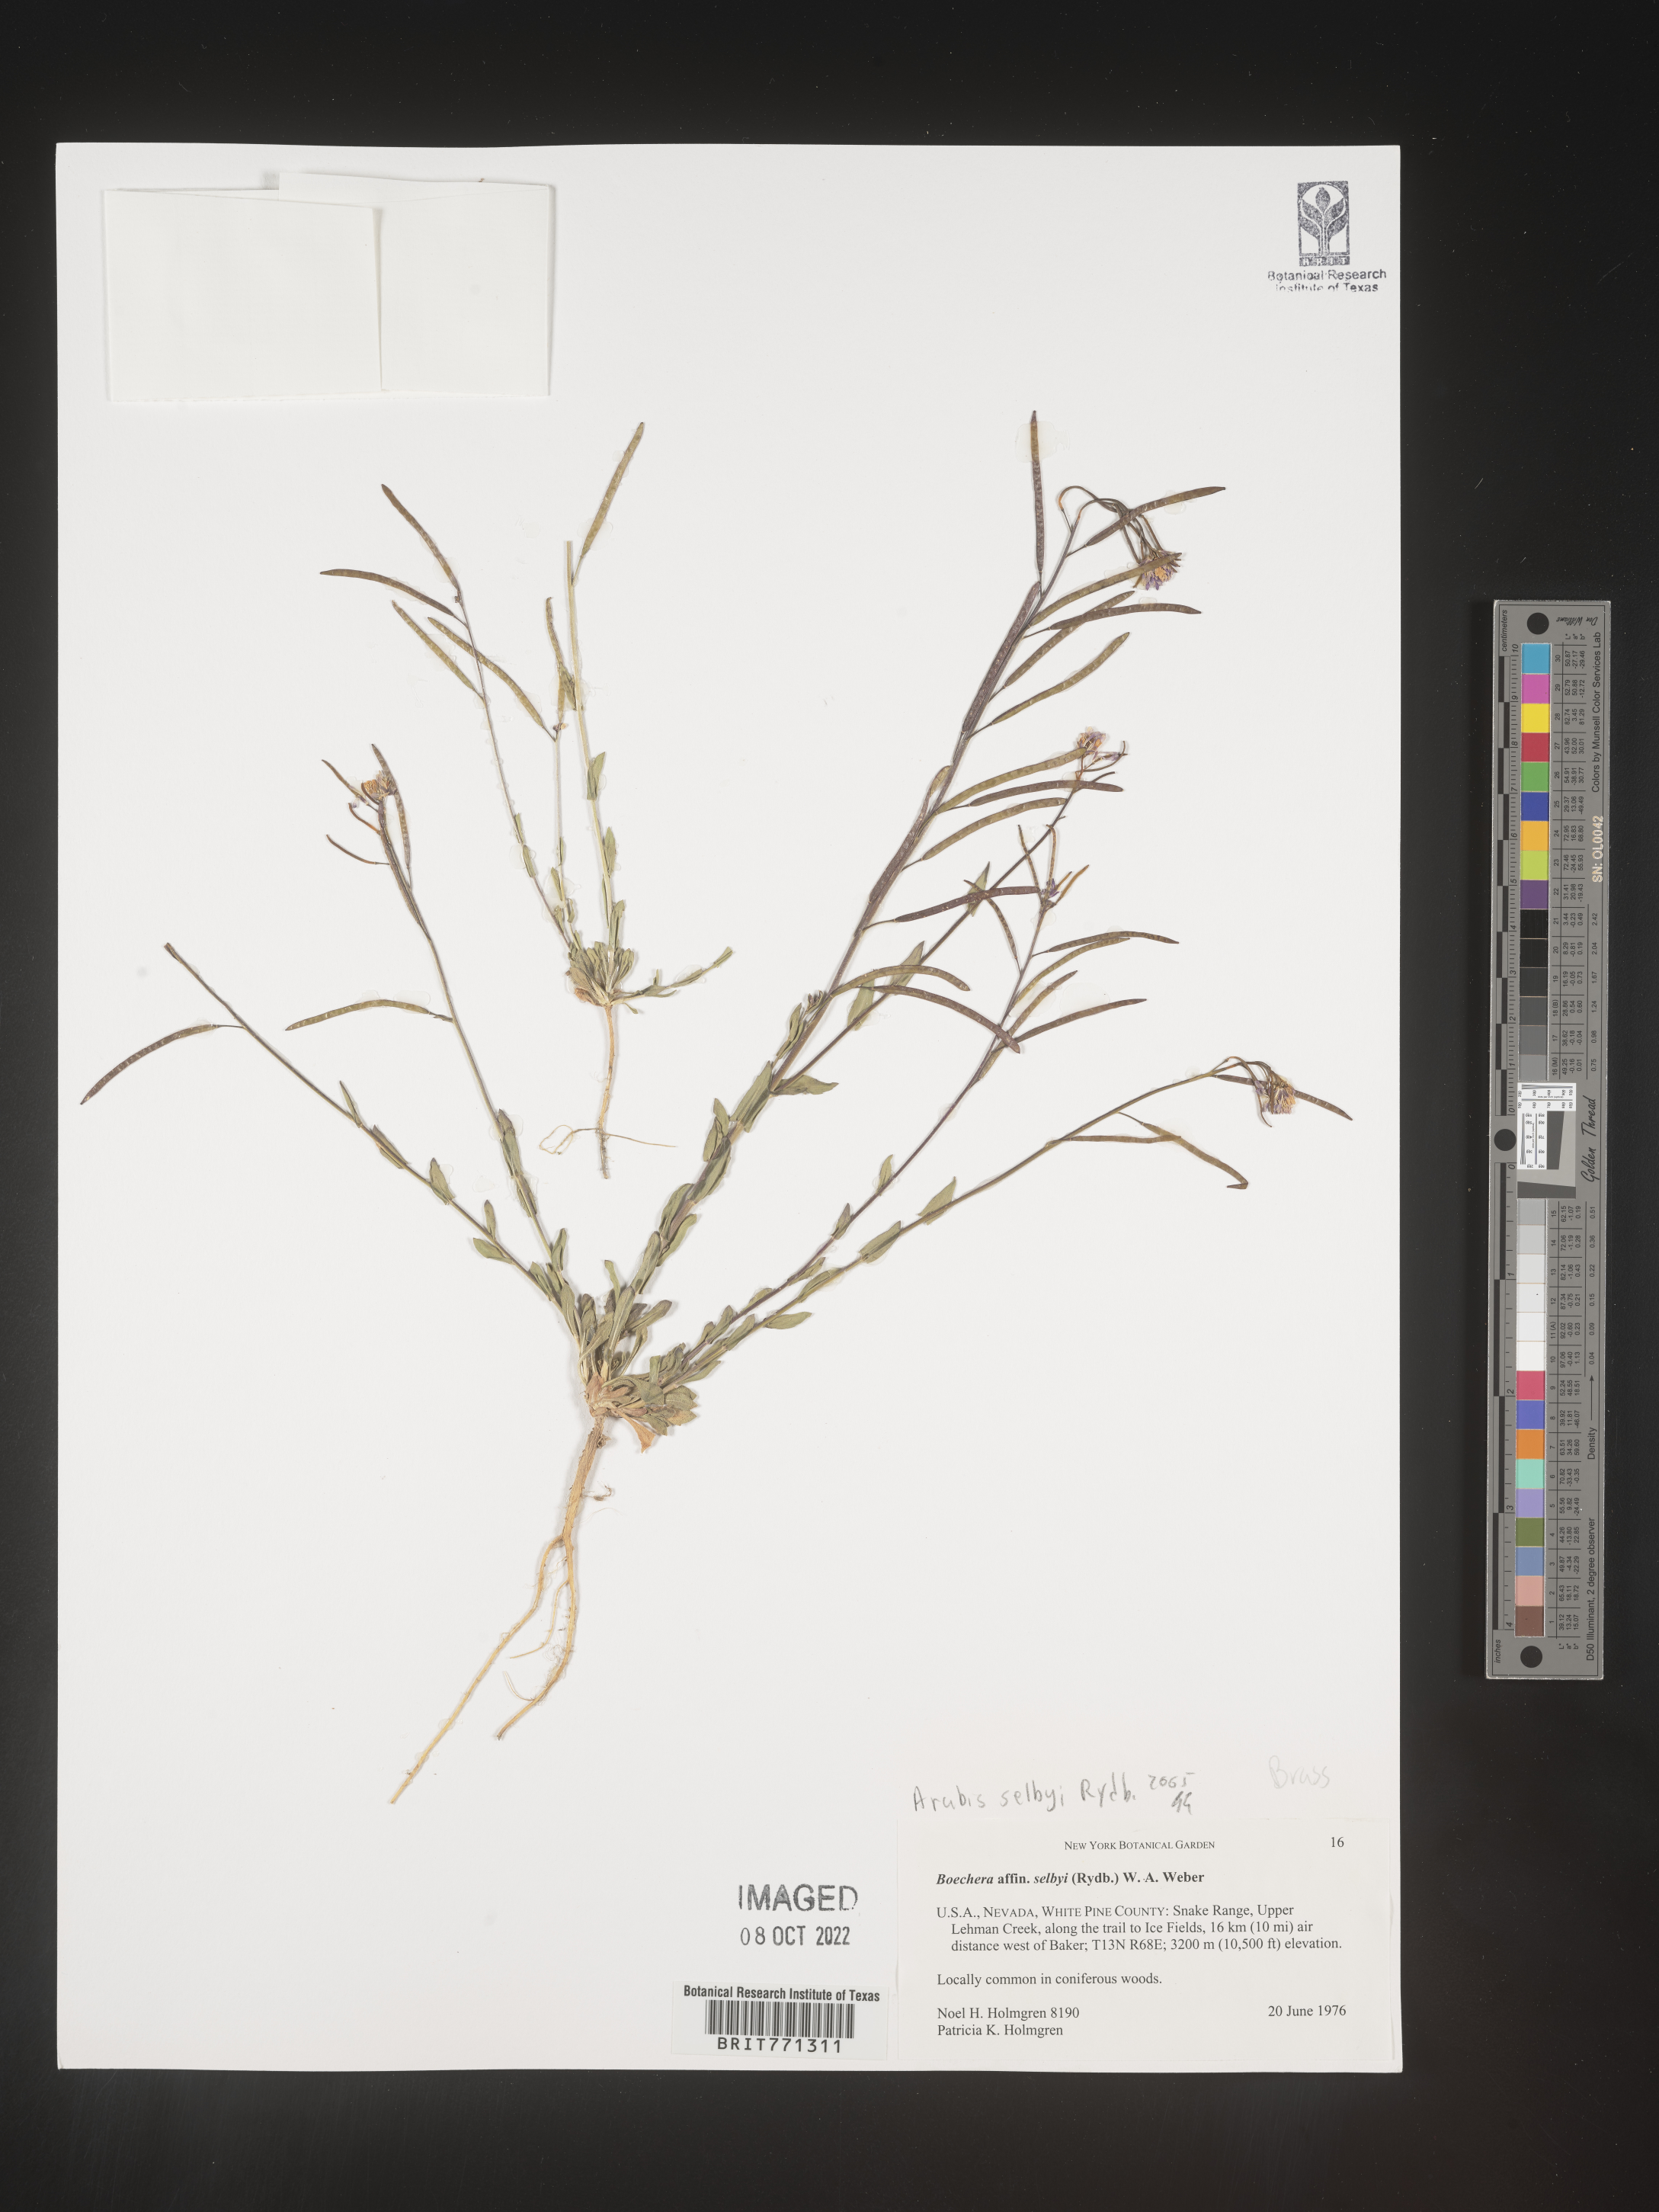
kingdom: Plantae
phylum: Tracheophyta
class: Magnoliopsida
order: Brassicales
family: Brassicaceae
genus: Arabis
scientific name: Arabis
